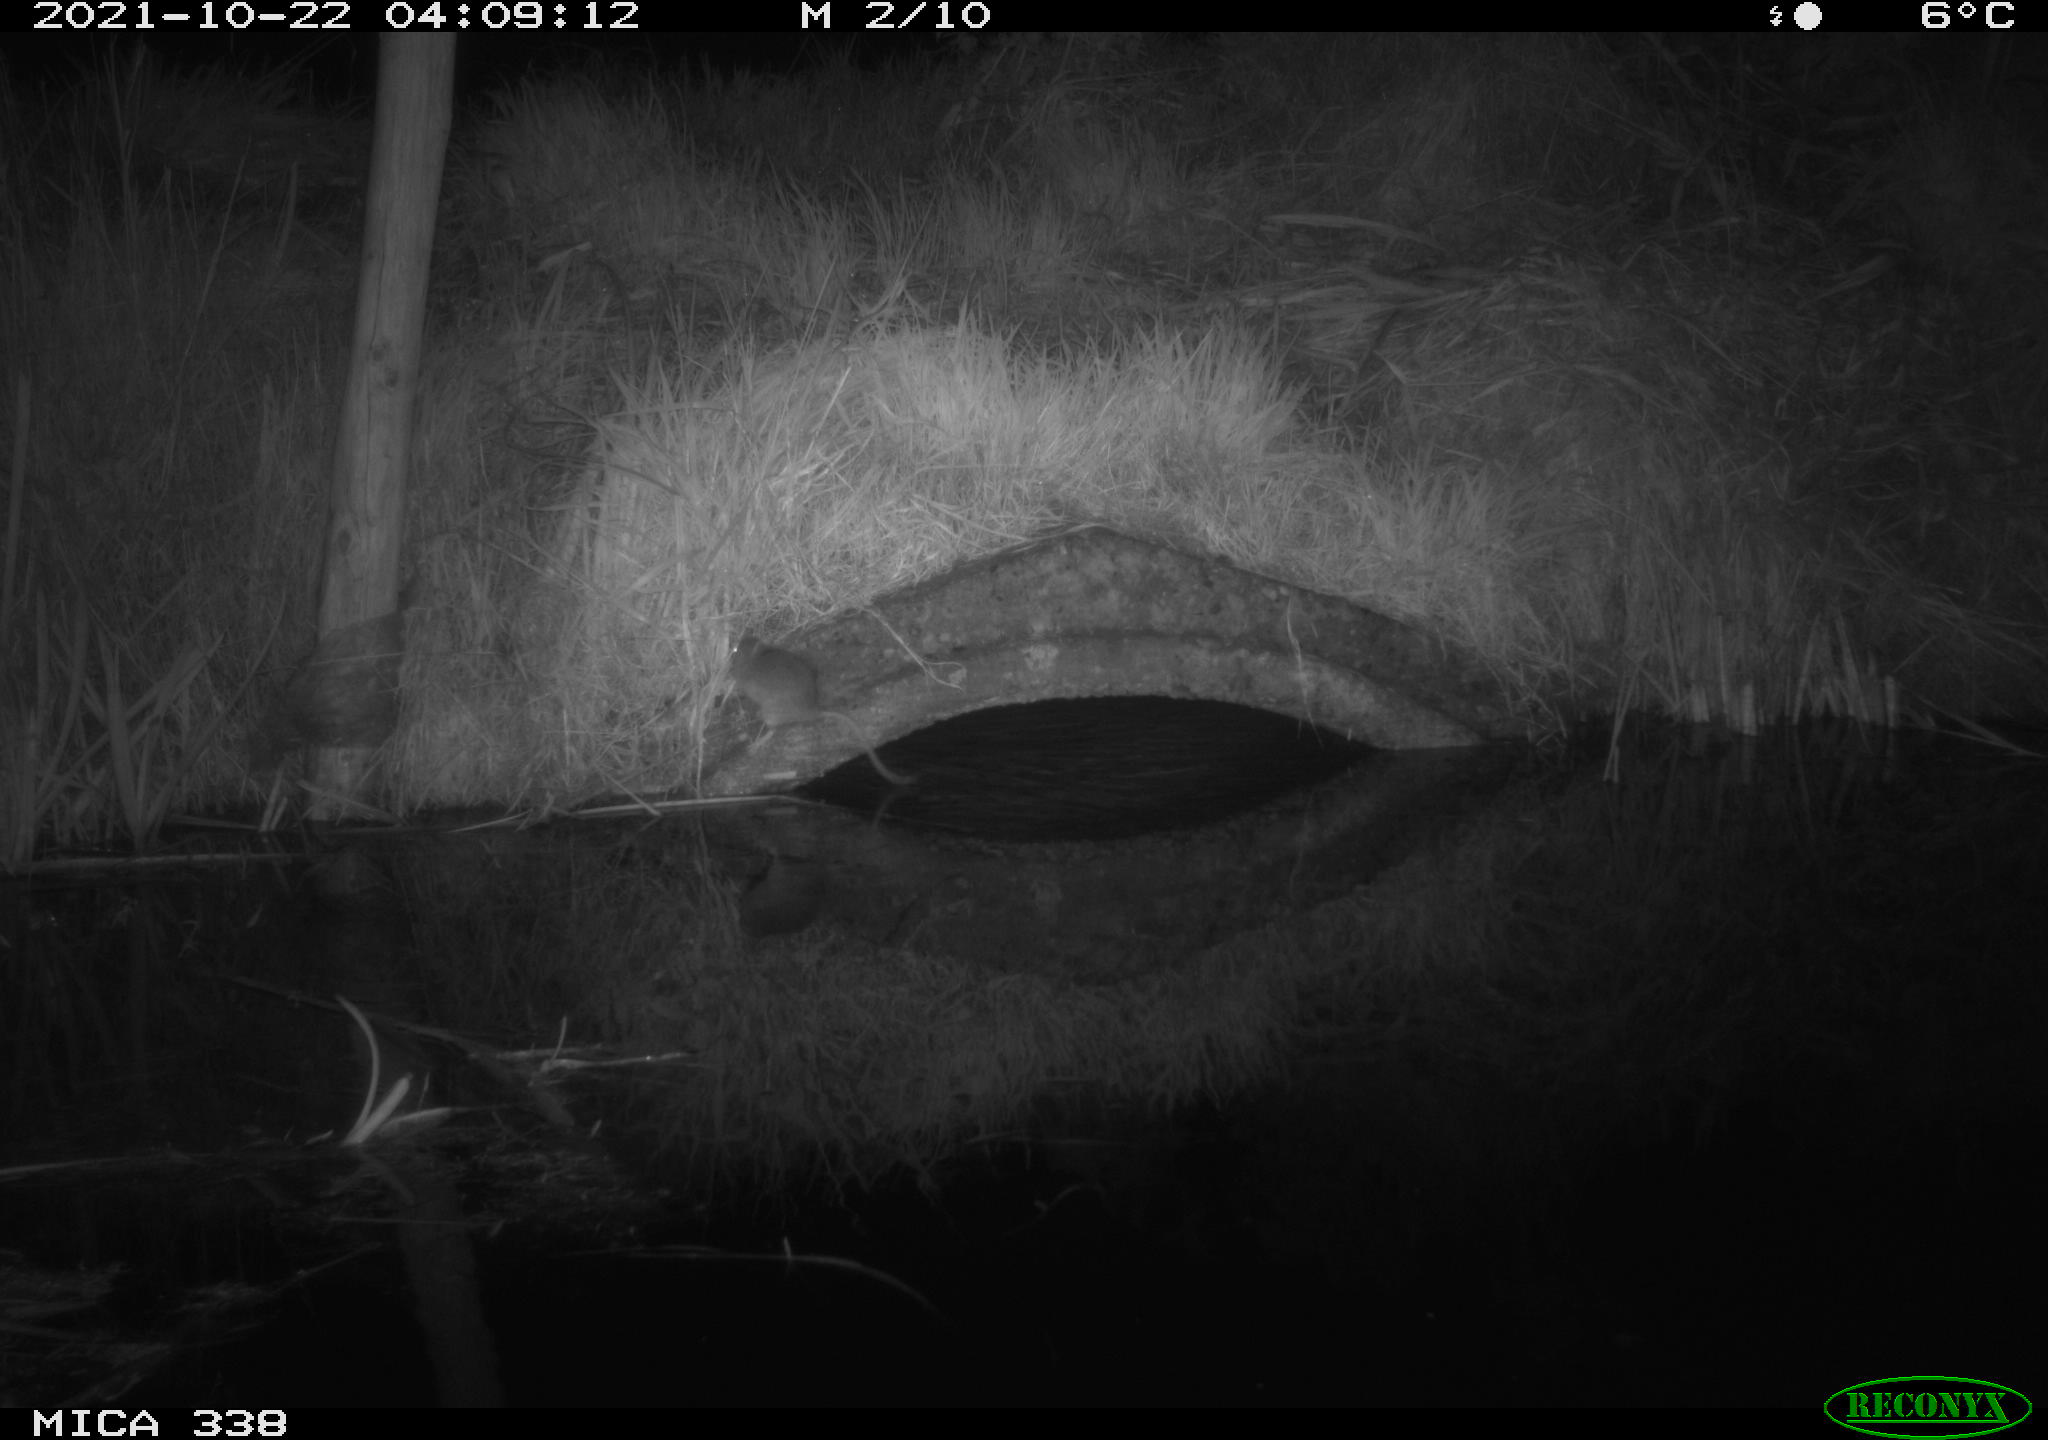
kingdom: Animalia
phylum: Chordata
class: Mammalia
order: Rodentia
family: Muridae
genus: Rattus
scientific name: Rattus norvegicus
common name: Brown rat
